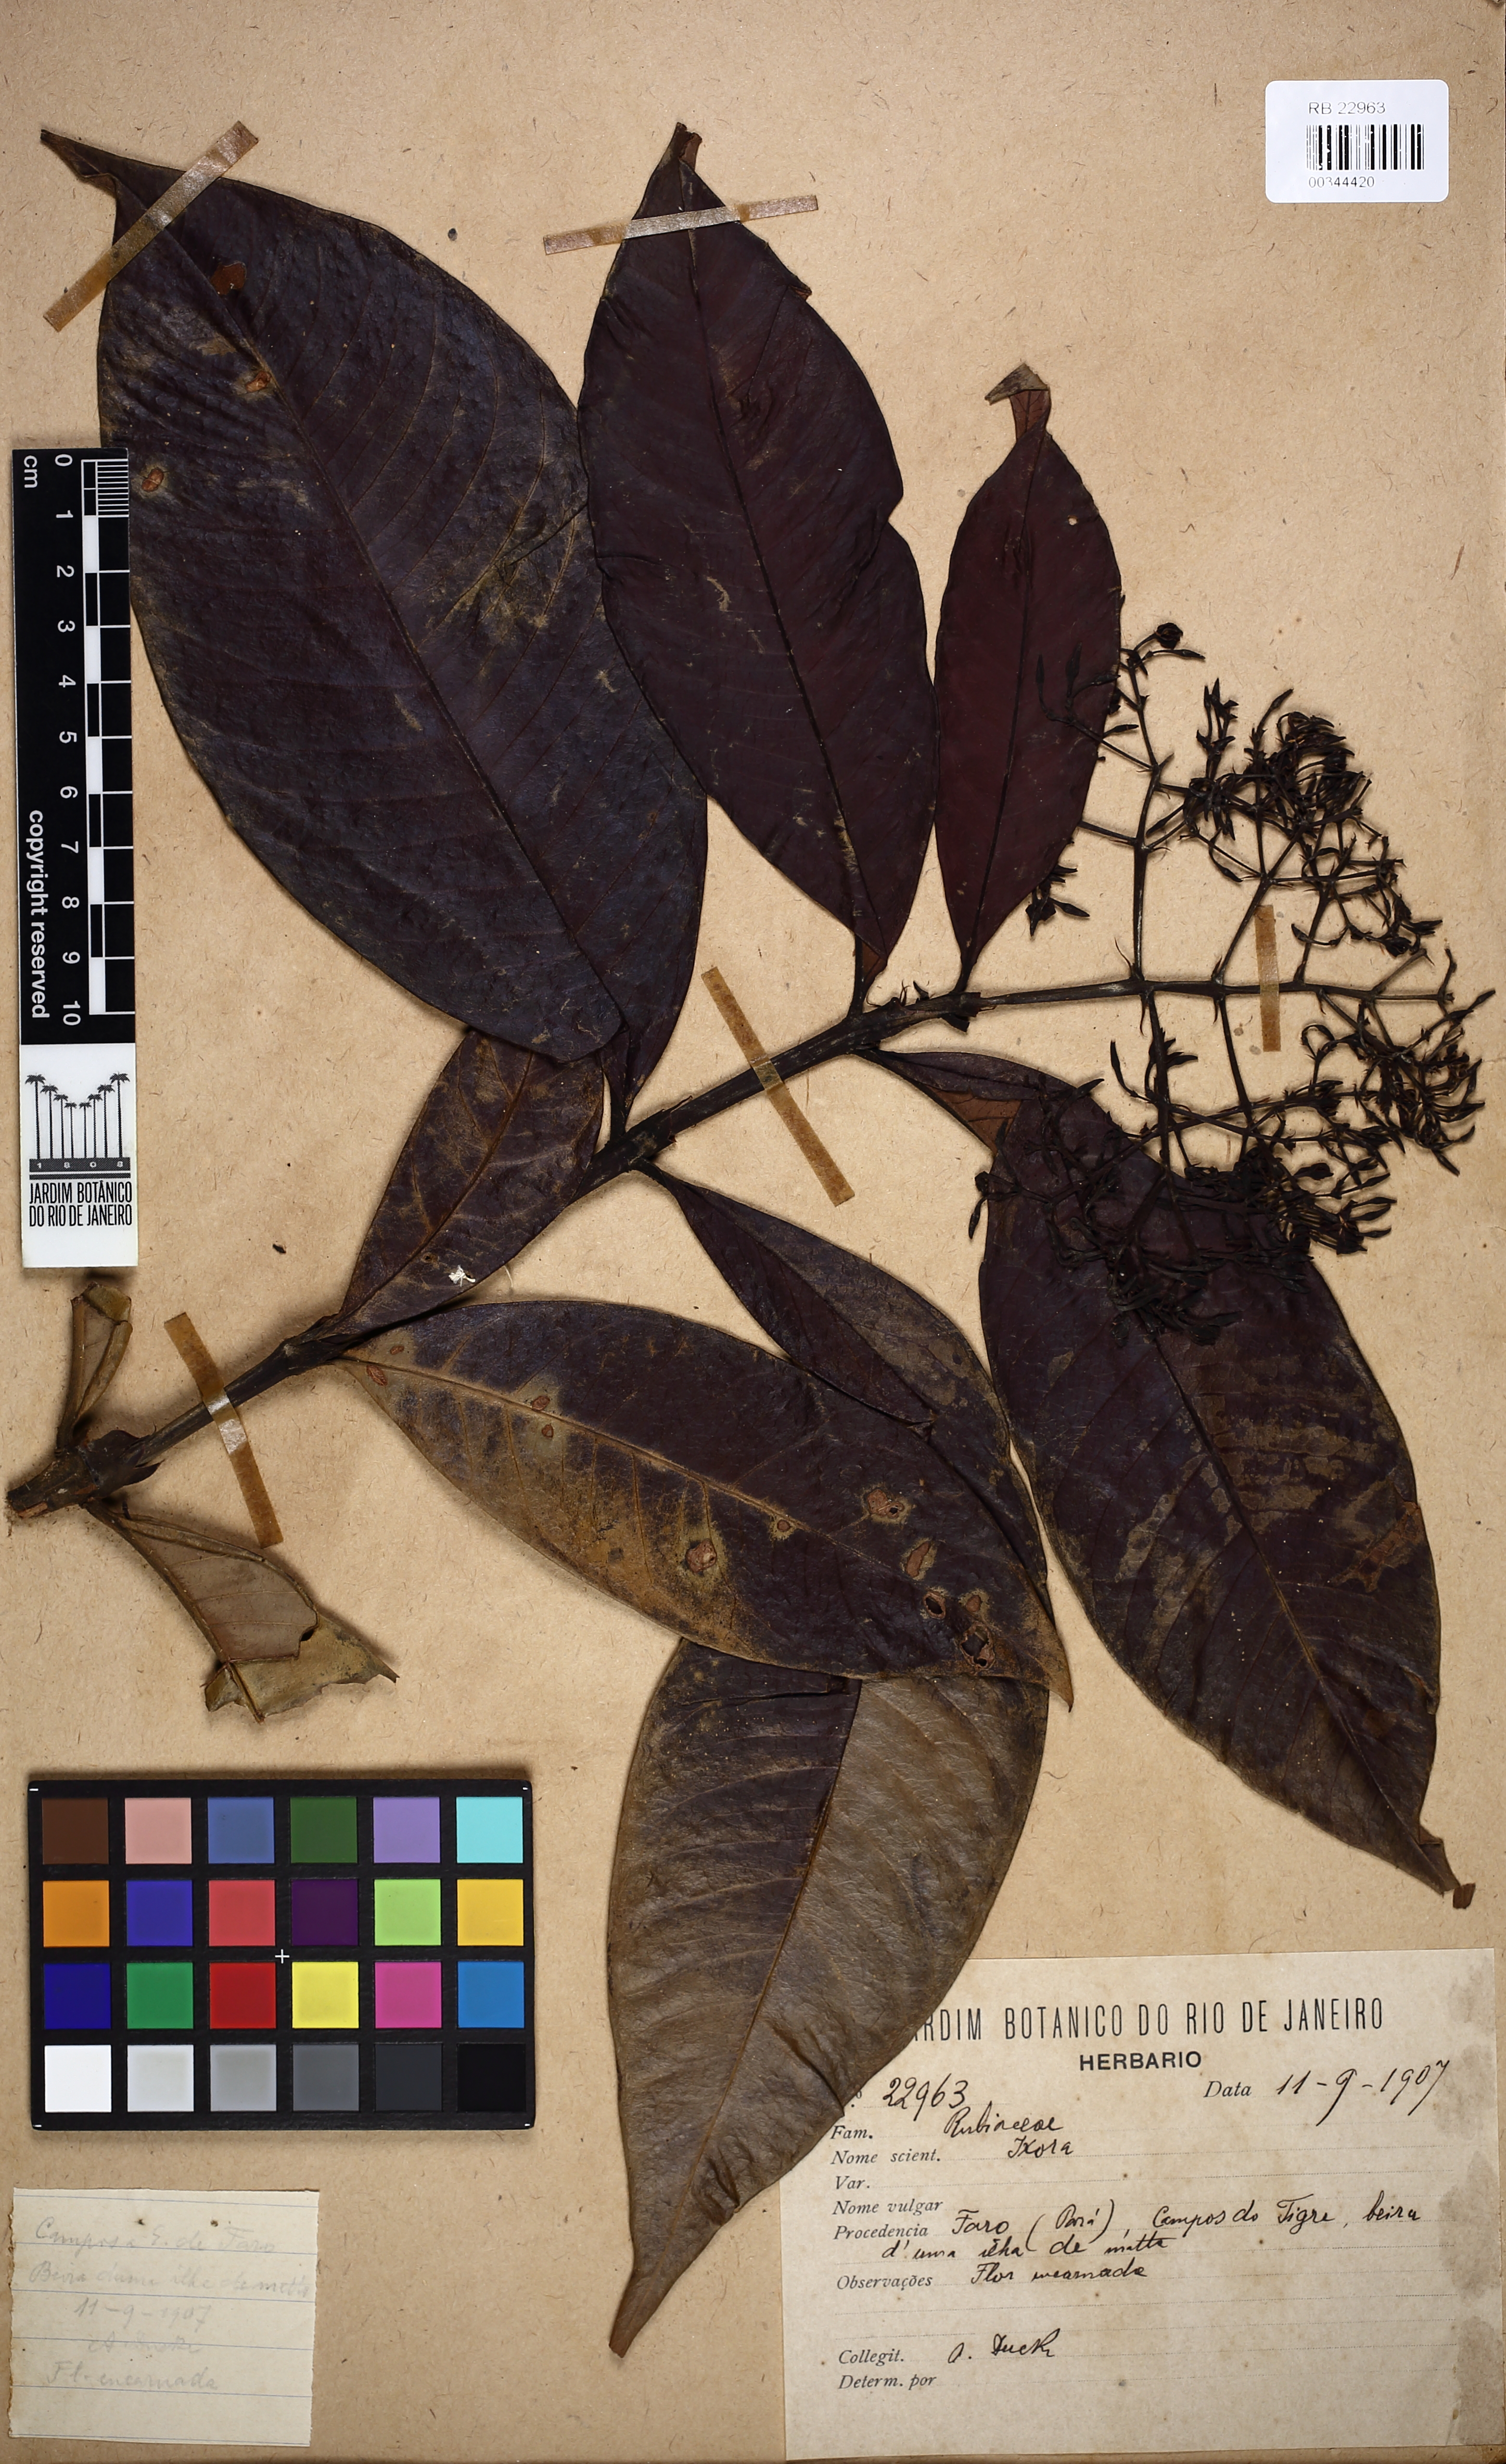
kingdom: Plantae
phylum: Tracheophyta
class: Magnoliopsida
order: Gentianales
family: Rubiaceae
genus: Ixora
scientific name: Ixora
